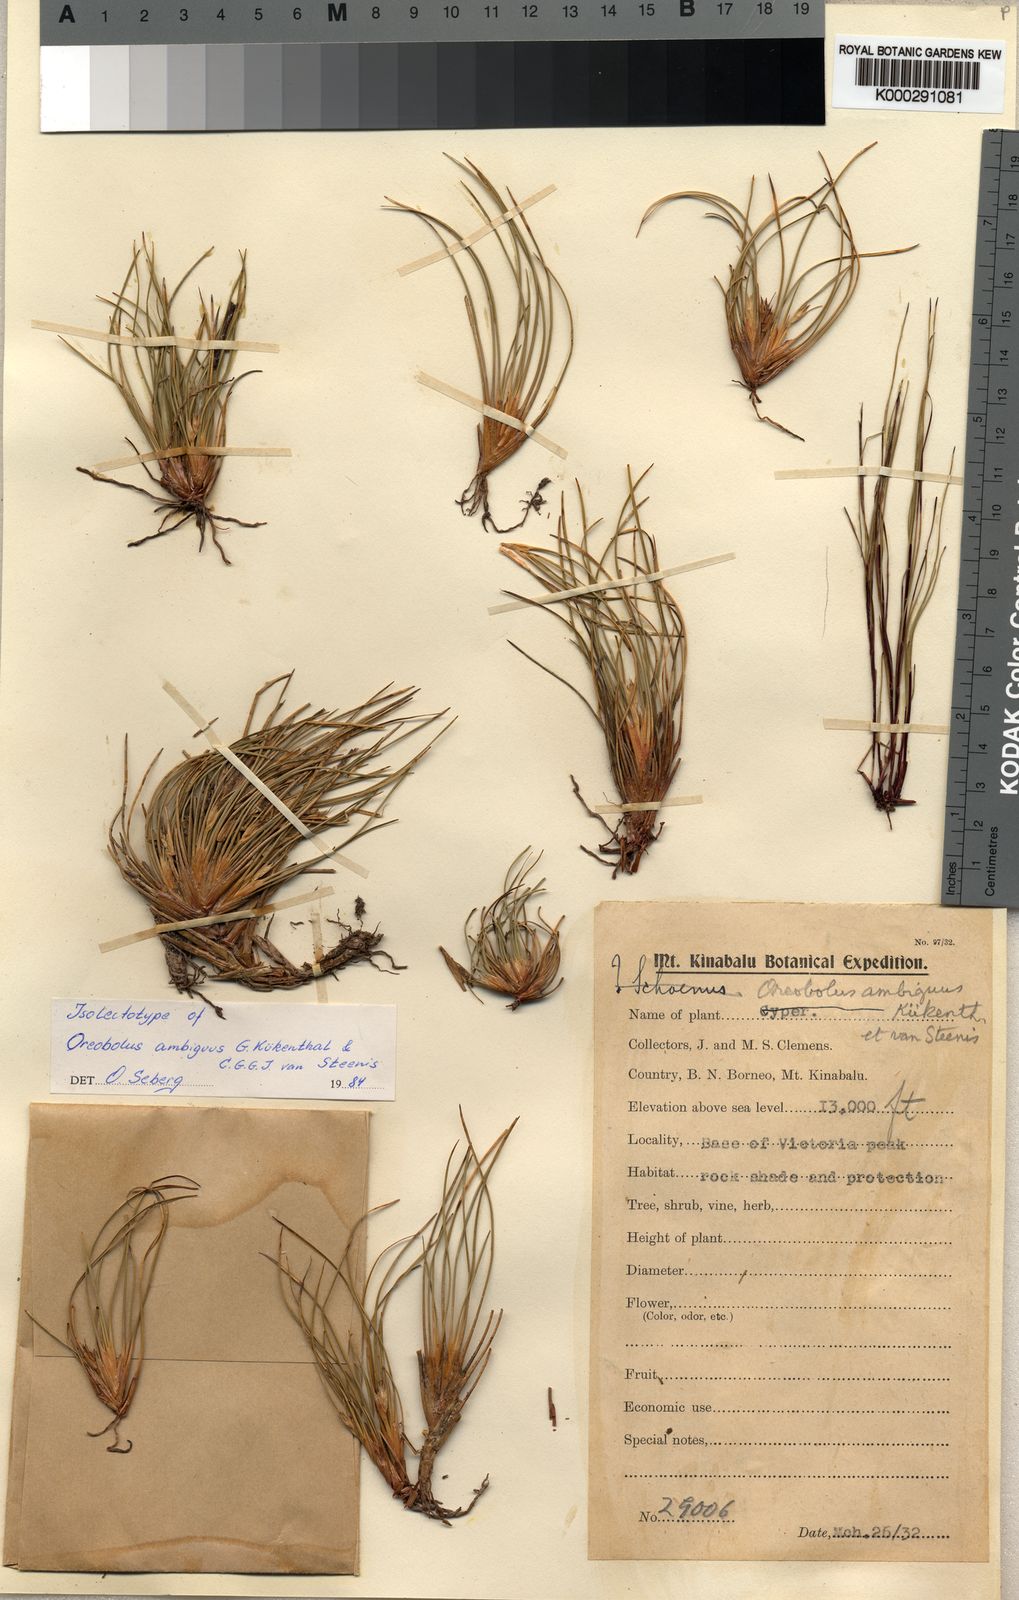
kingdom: Plantae
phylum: Tracheophyta
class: Liliopsida
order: Poales
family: Cyperaceae
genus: Oreobolus
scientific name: Oreobolus
